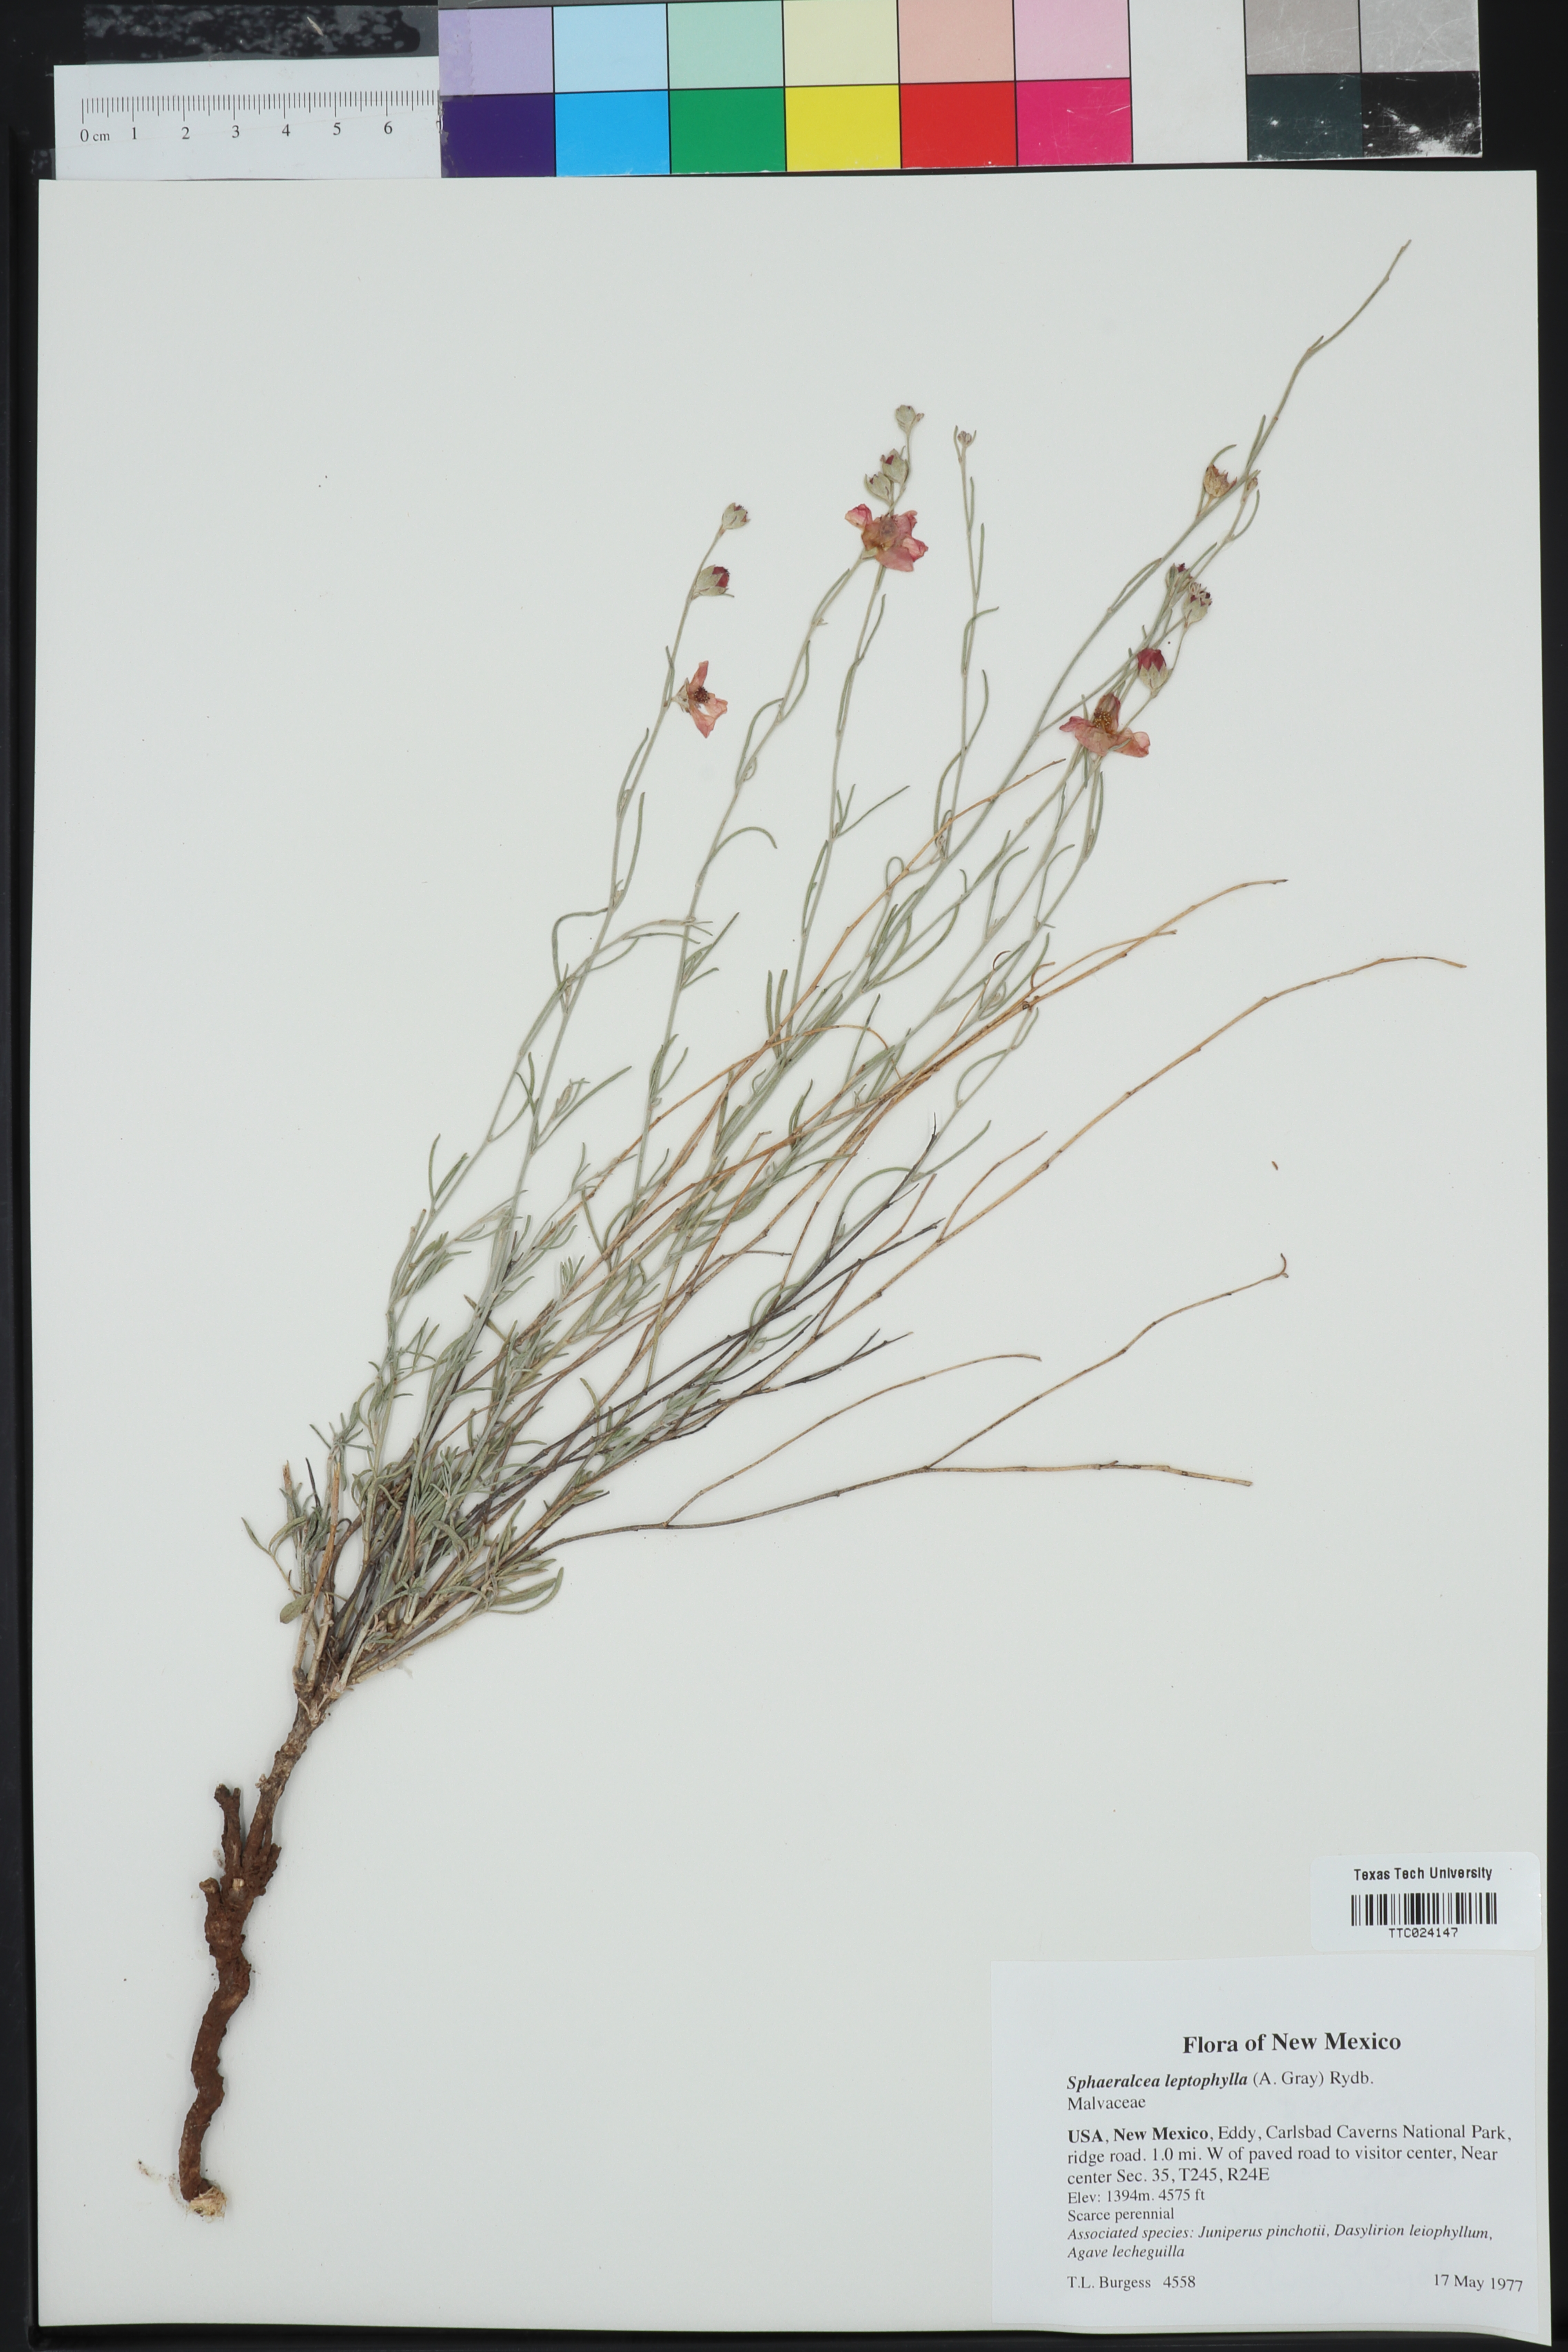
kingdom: Plantae
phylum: Tracheophyta
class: Magnoliopsida
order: Malvales
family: Malvaceae
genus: Sphaeralcea
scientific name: Sphaeralcea leptophylla
